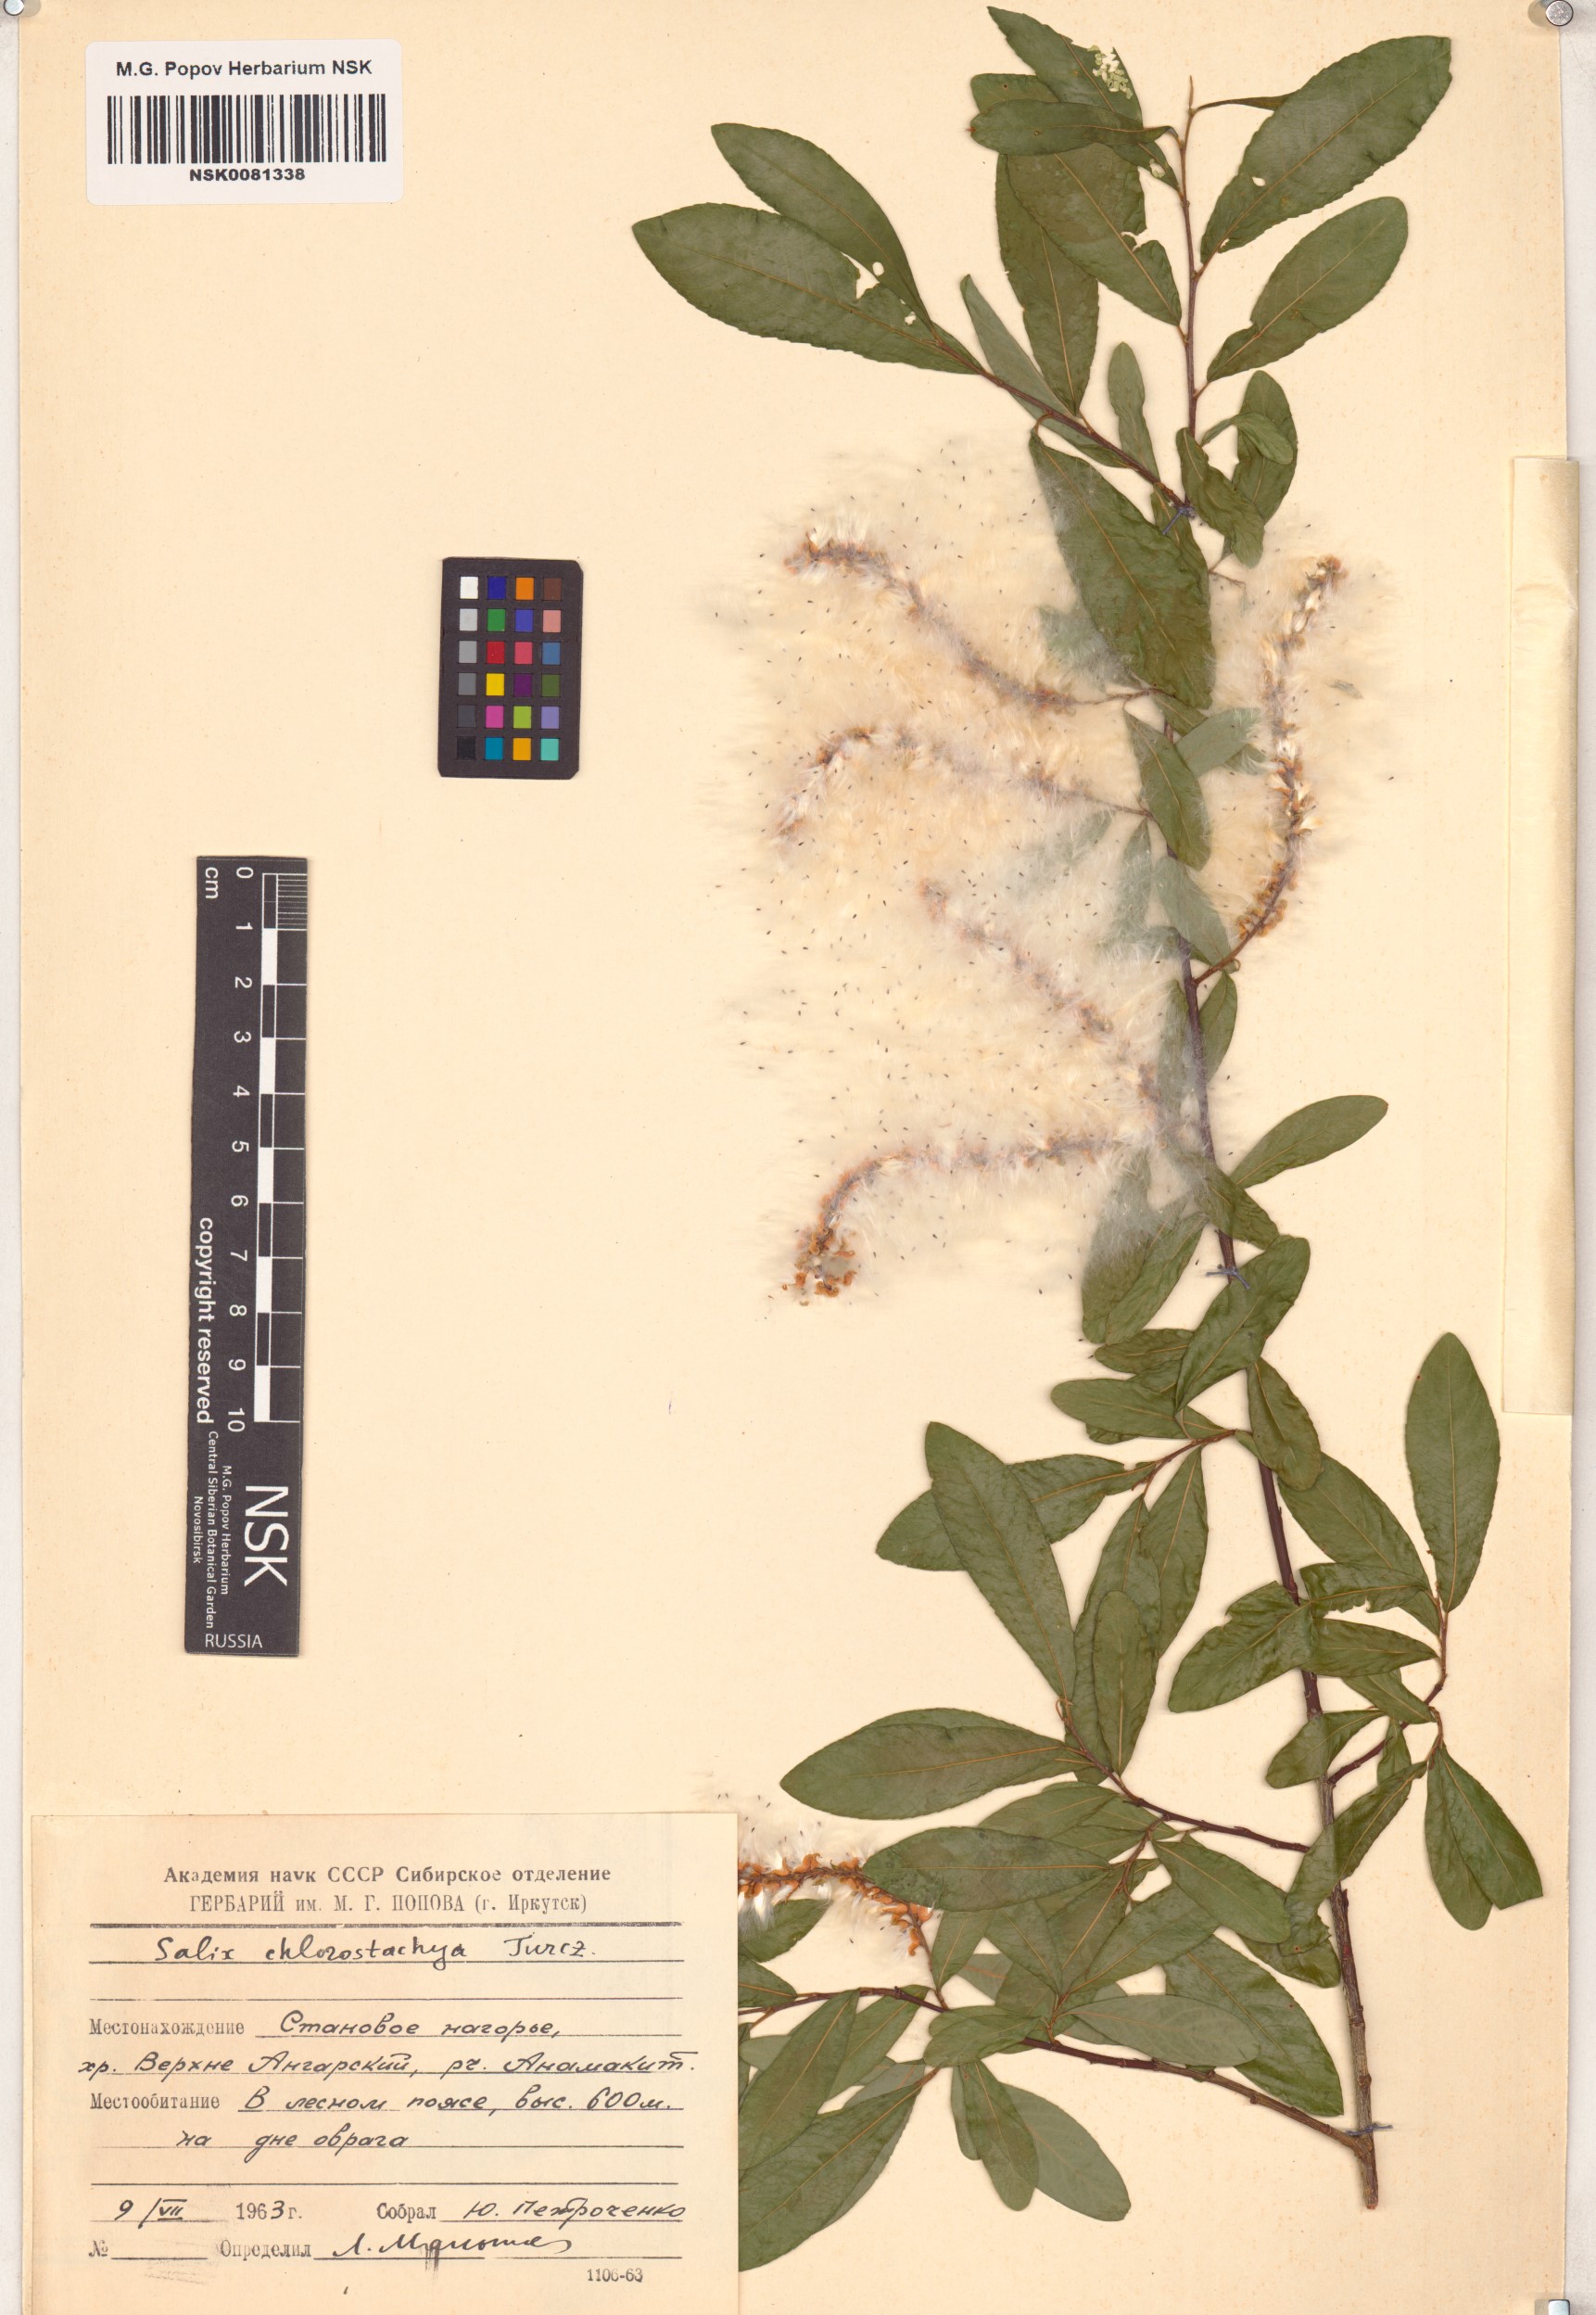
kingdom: Plantae
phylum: Tracheophyta
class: Magnoliopsida
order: Malpighiales
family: Salicaceae
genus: Salix
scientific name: Salix rhamnifolia
